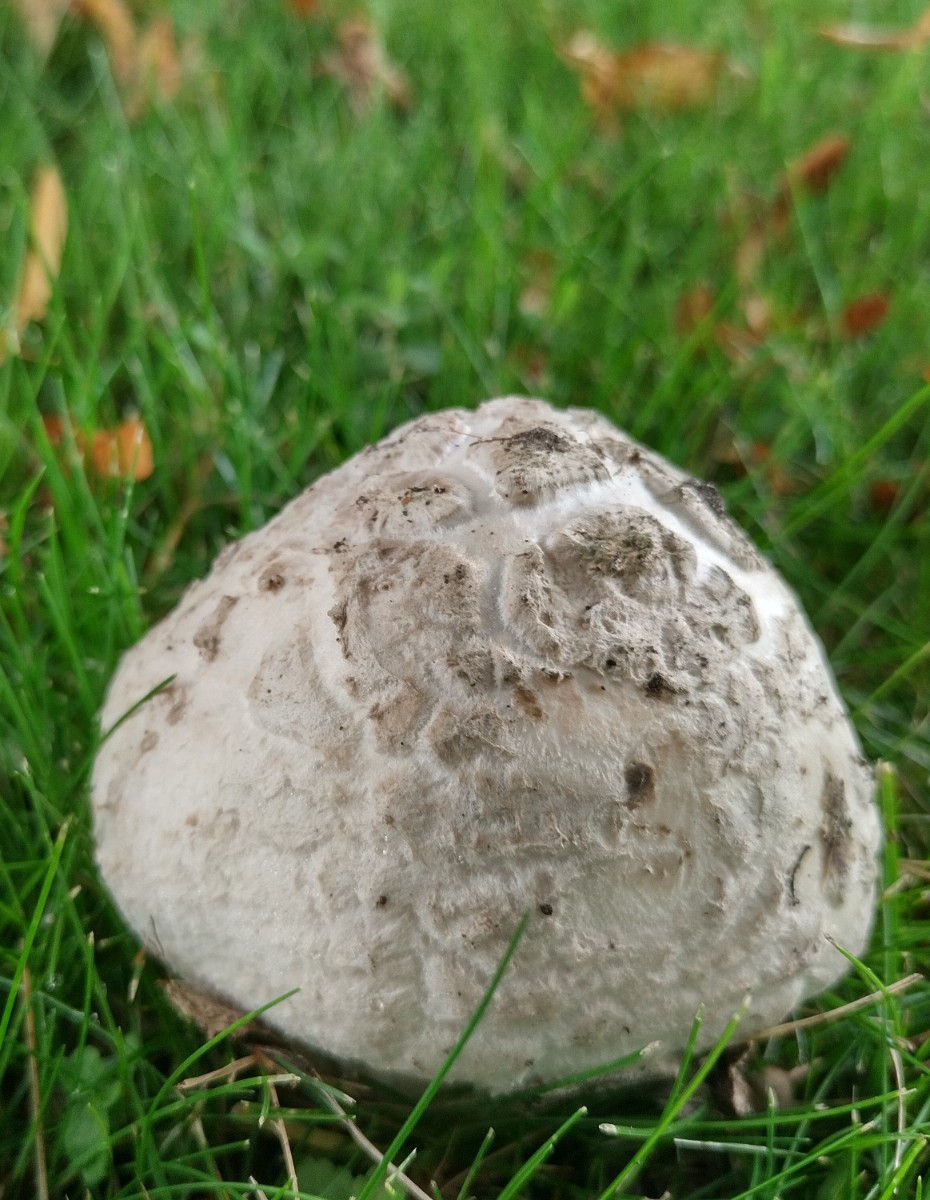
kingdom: Fungi
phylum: Basidiomycota
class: Agaricomycetes
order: Agaricales
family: Amanitaceae
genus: Amanita
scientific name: Amanita
